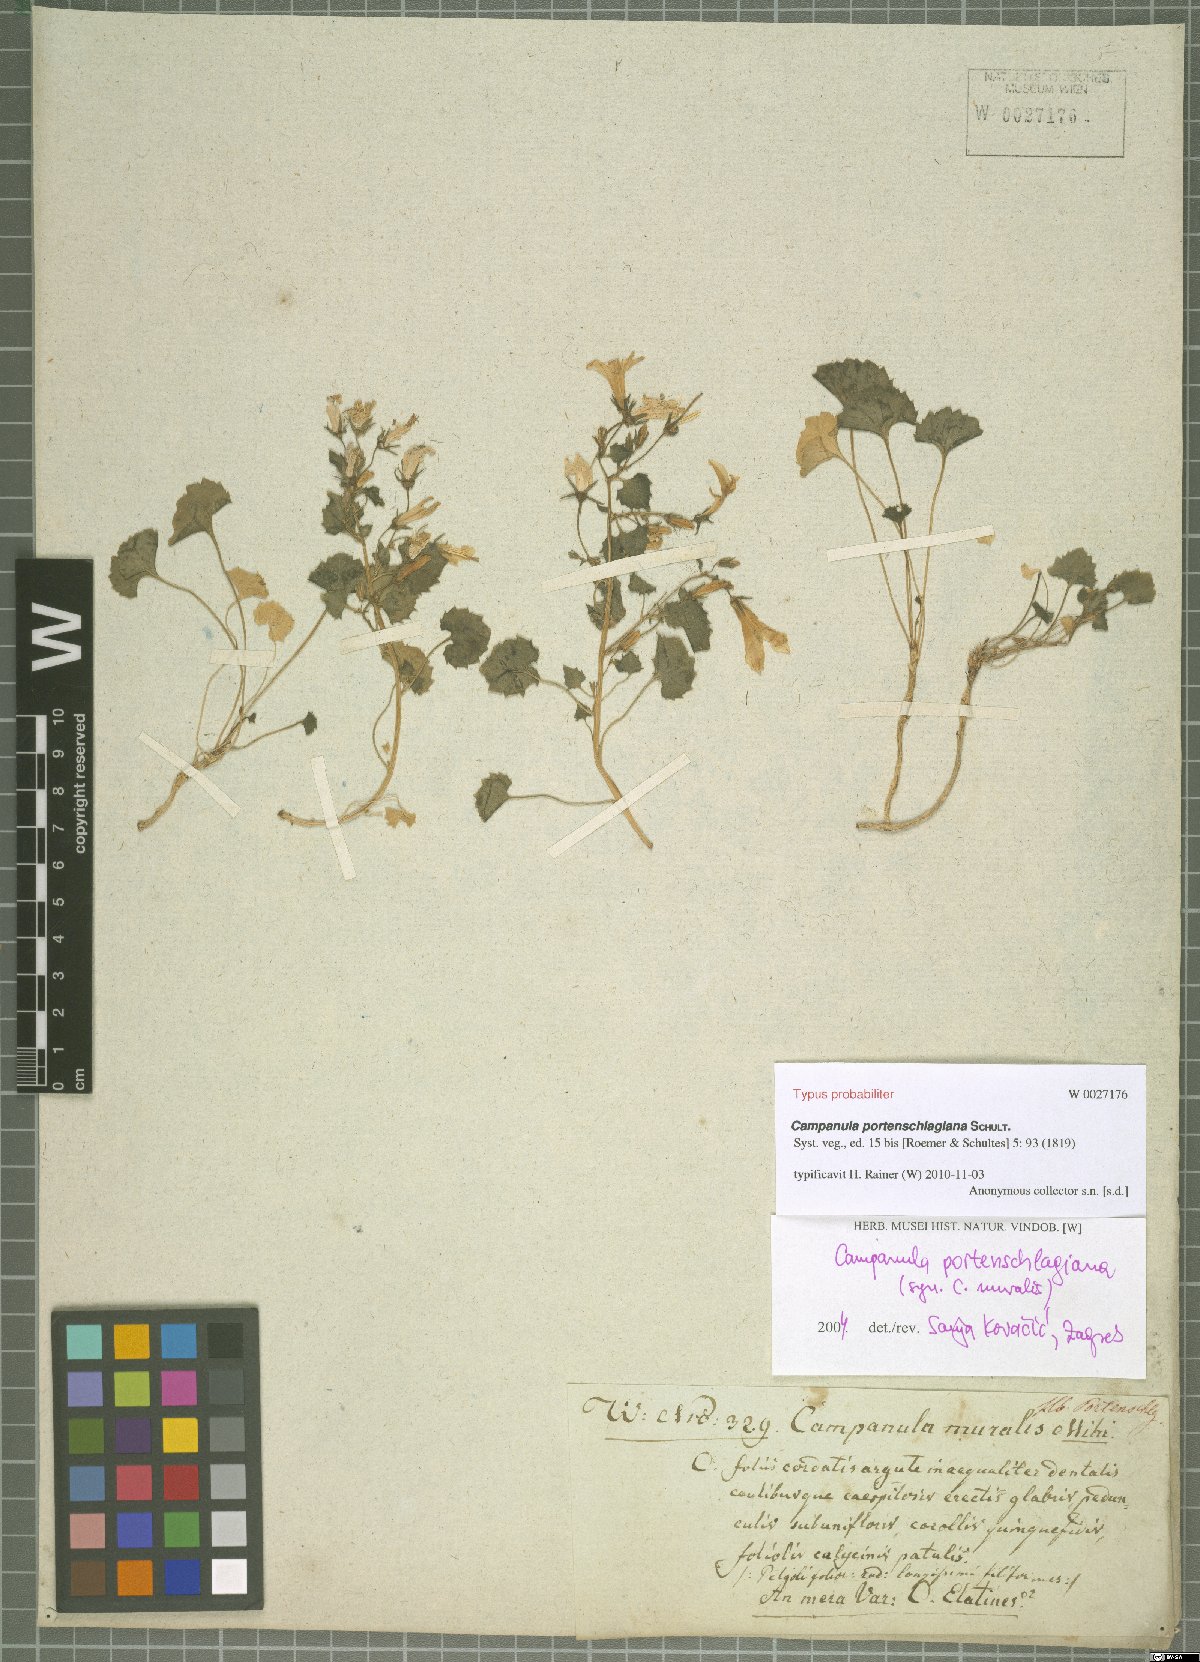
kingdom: Plantae
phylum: Tracheophyta
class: Magnoliopsida
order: Asterales
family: Campanulaceae
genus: Campanula
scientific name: Campanula portenschlagiana
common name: Adria bellflower
